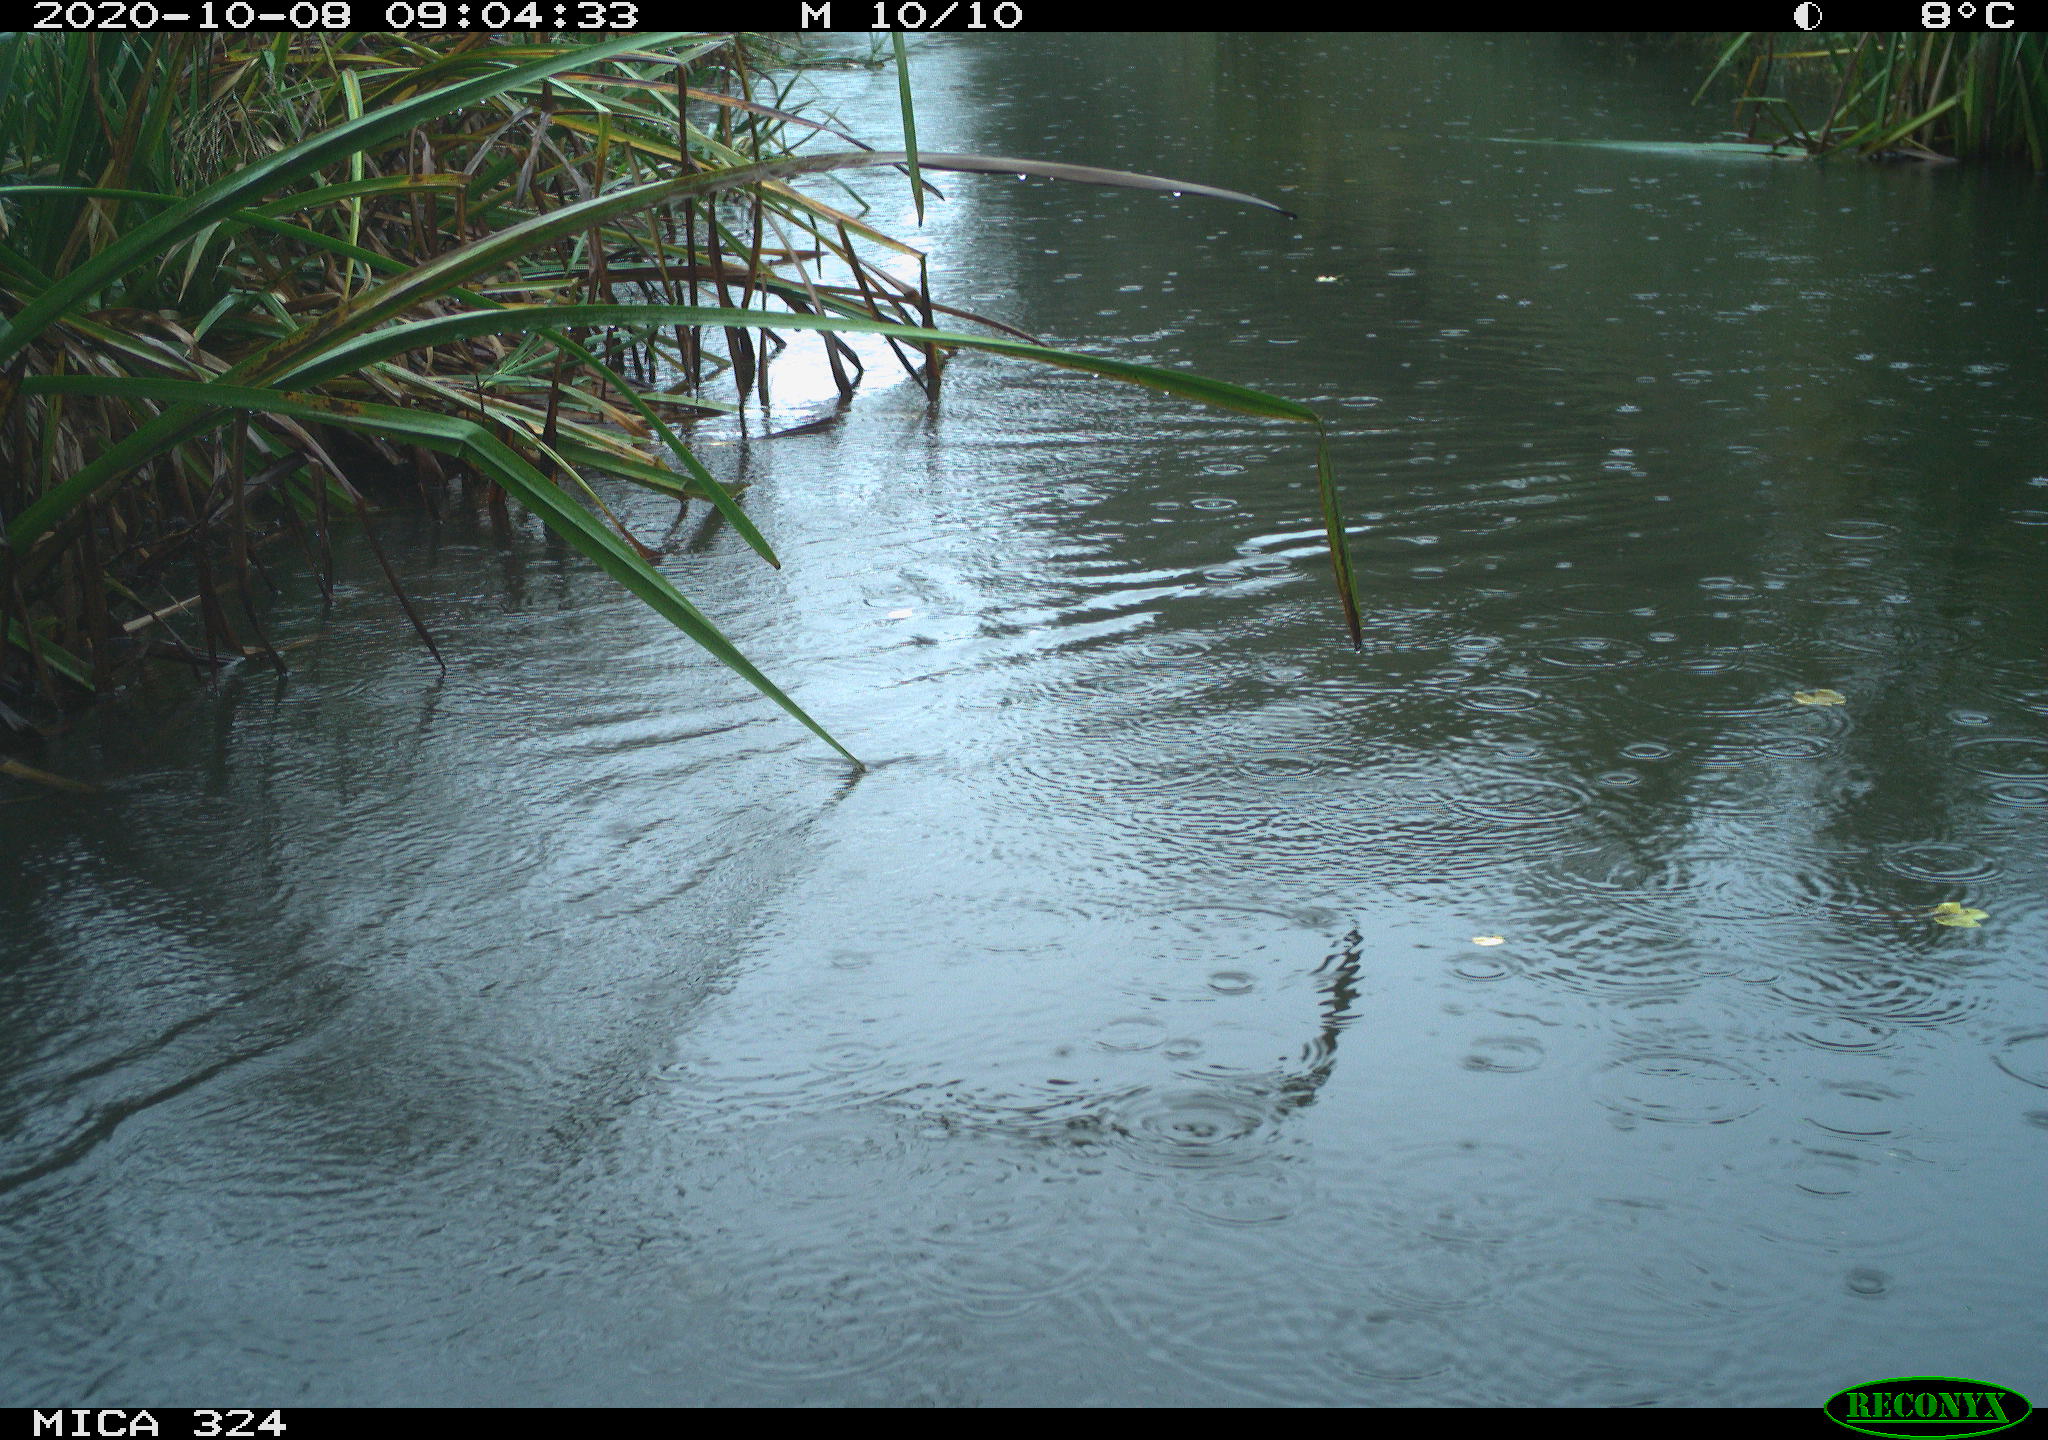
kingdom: Animalia
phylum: Chordata
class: Aves
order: Gruiformes
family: Rallidae
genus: Gallinula
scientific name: Gallinula chloropus
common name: Common moorhen
